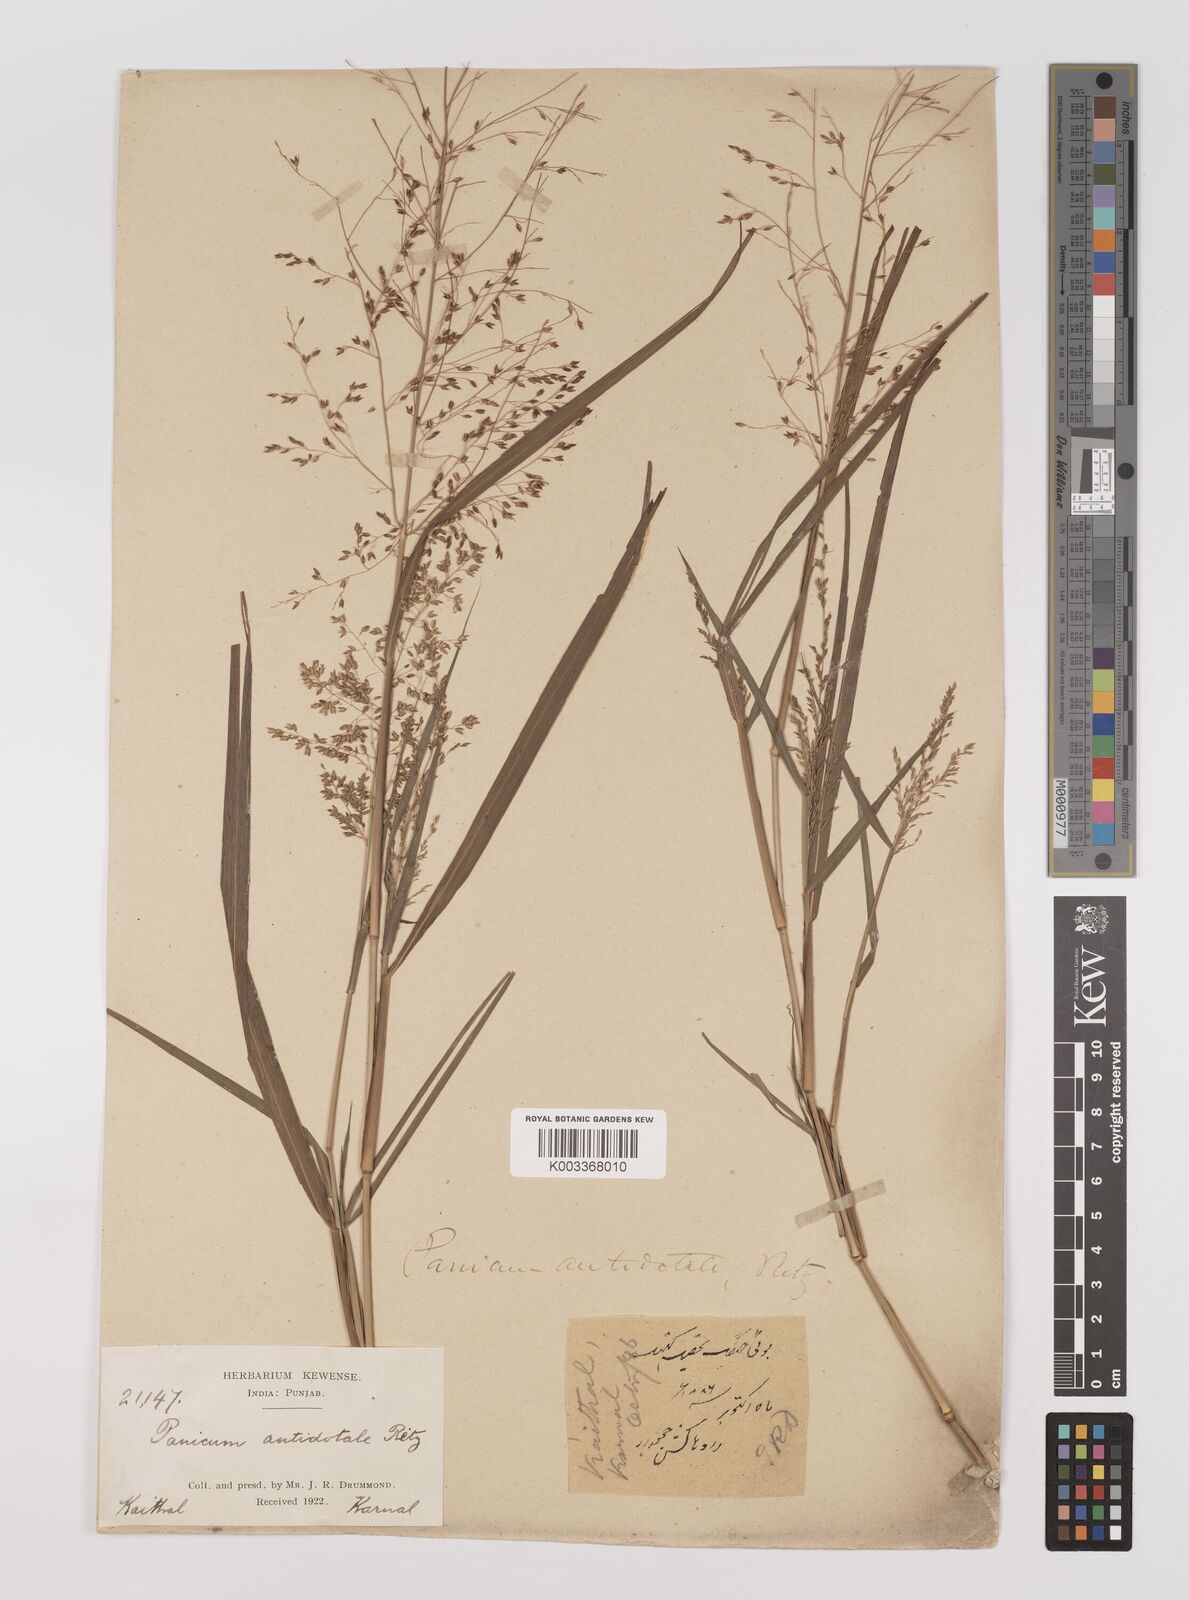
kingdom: Plantae
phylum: Tracheophyta
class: Liliopsida
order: Poales
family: Poaceae
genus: Panicum
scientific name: Panicum antidotale
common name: Blue panicum
